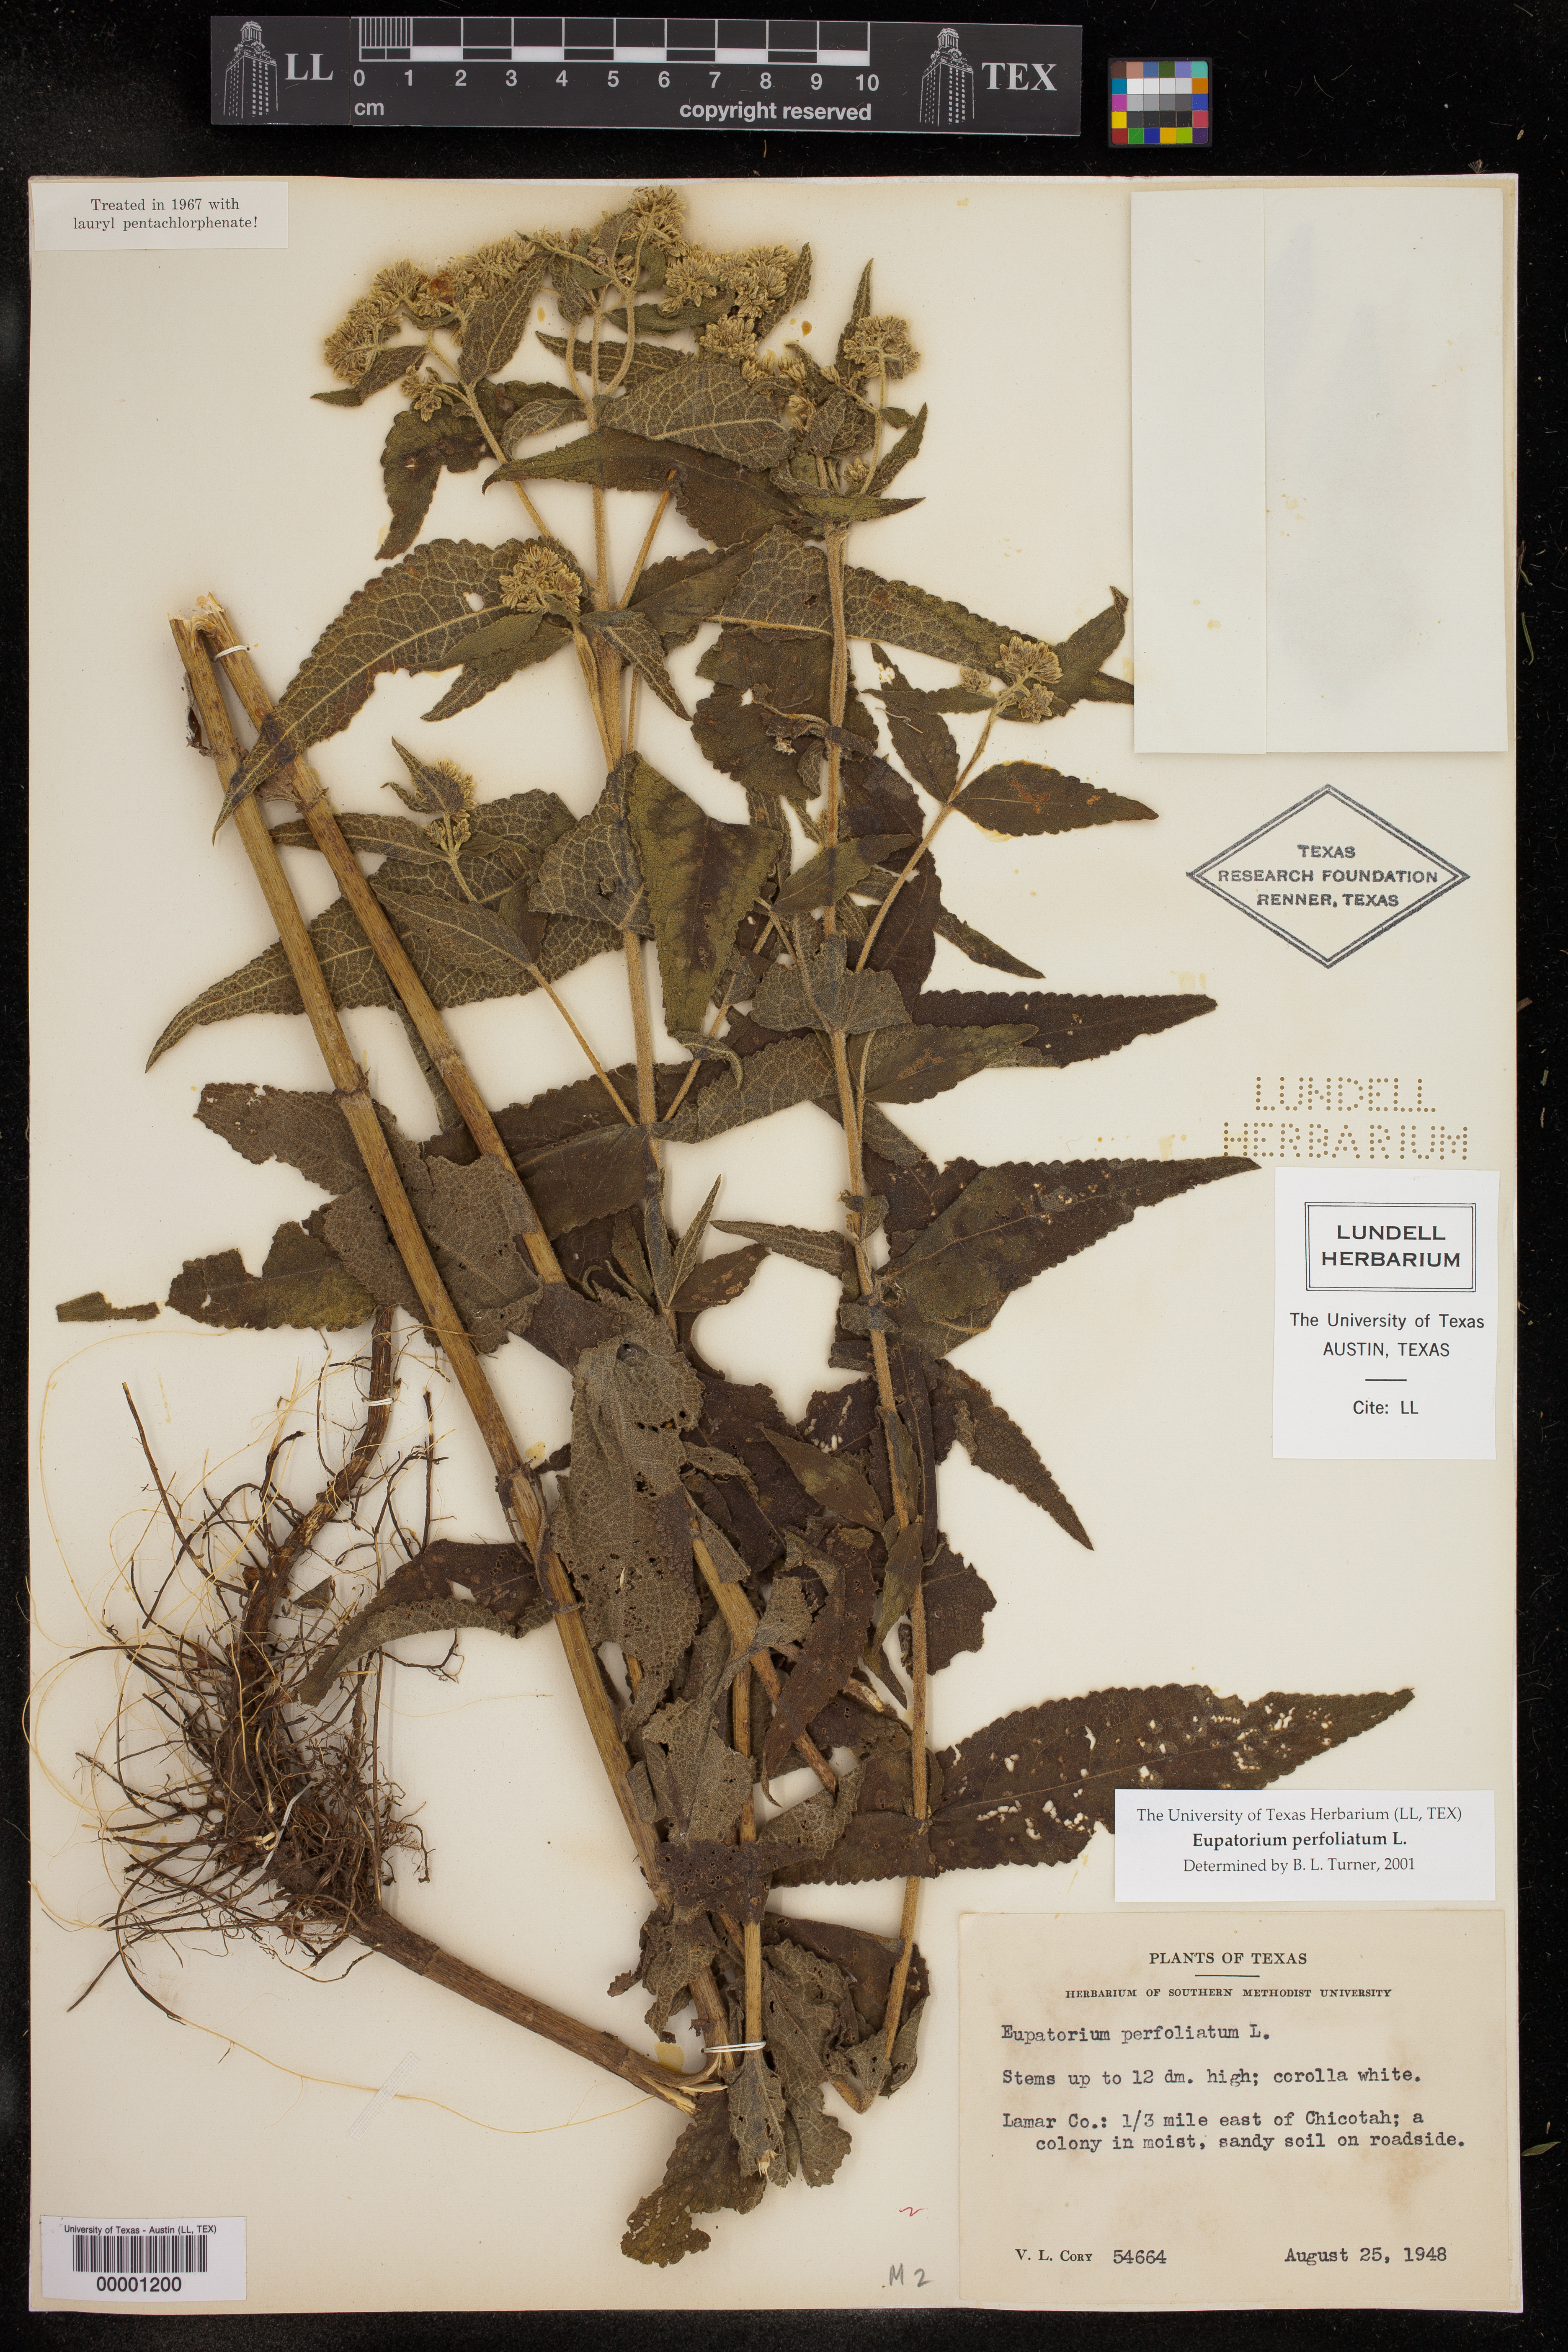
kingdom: Plantae
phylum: Tracheophyta
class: Magnoliopsida
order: Asterales
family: Asteraceae
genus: Eupatorium
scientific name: Eupatorium perfoliatum
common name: Boneset
